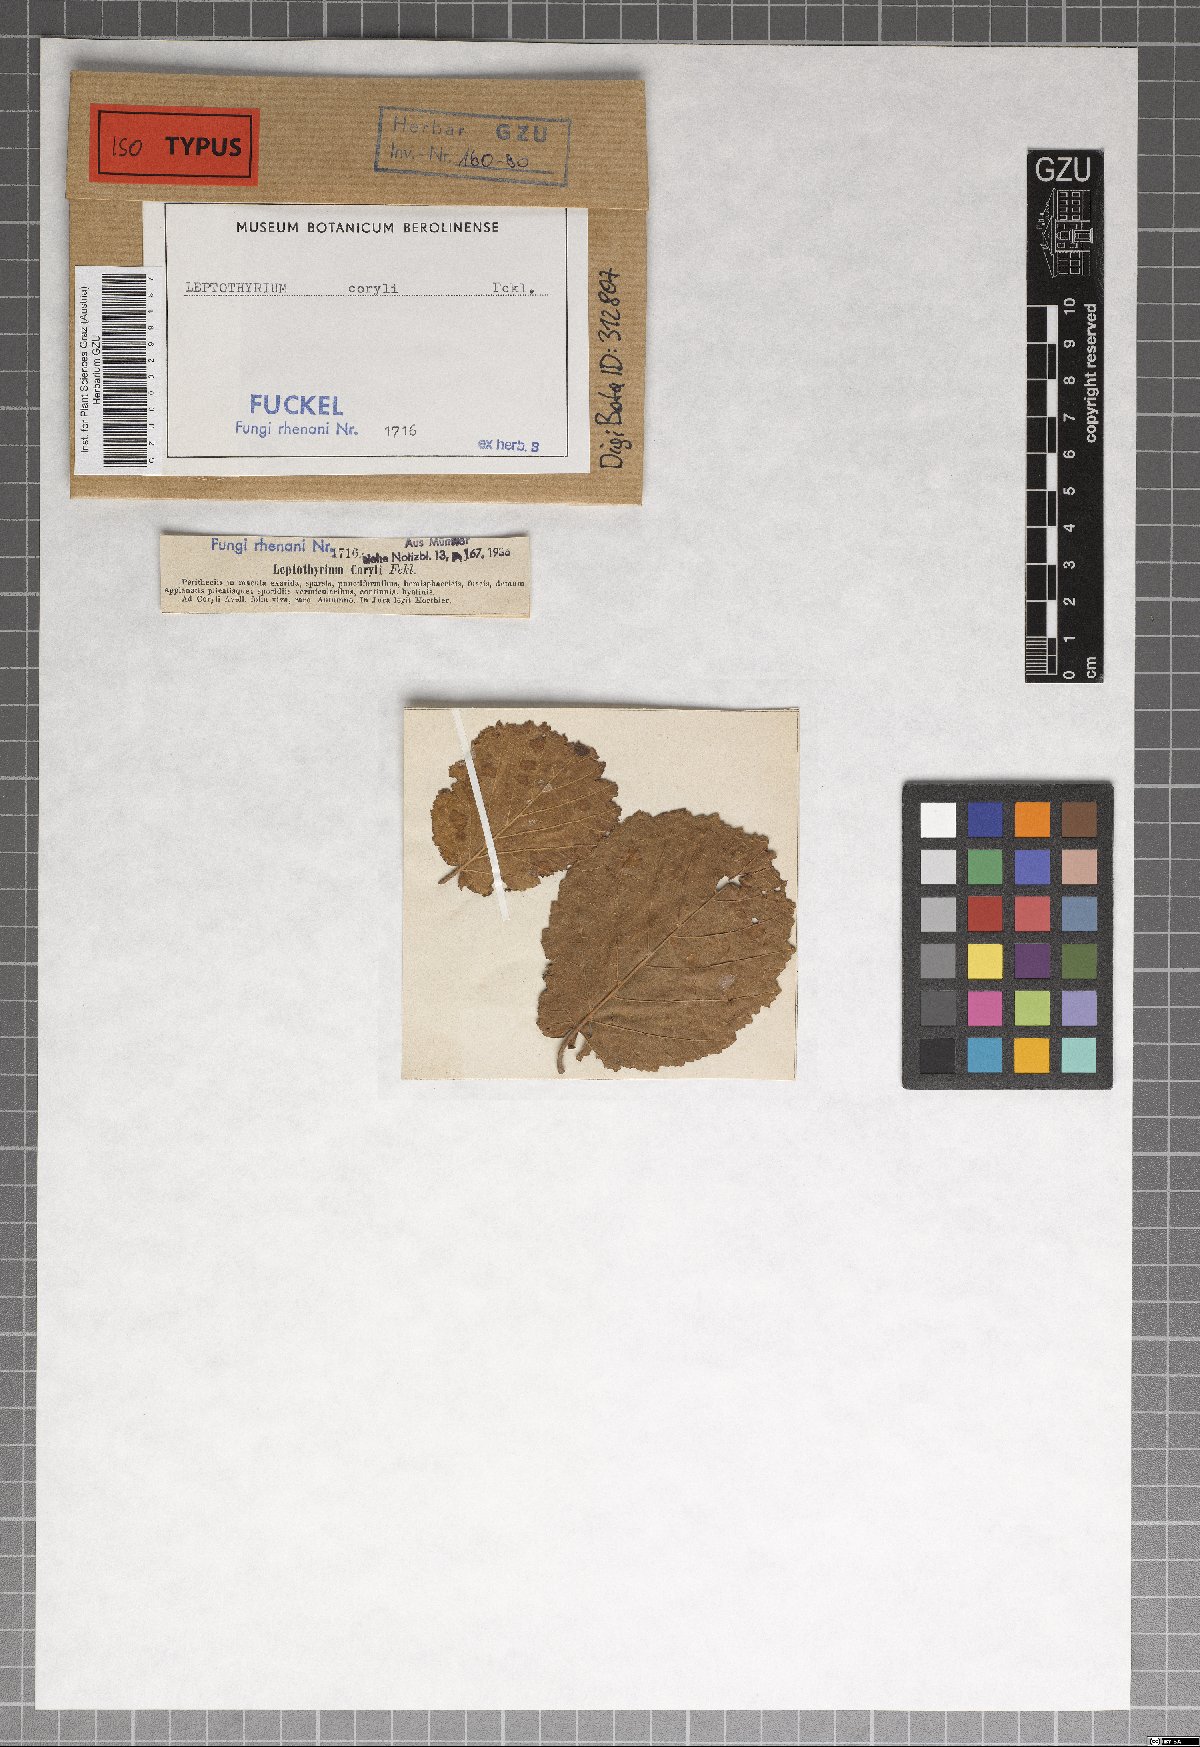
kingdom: Fungi
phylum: Ascomycota
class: Sordariomycetes
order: Diaporthales
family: Gnomoniaceae
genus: Asteroma
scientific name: Asteroma coryli
